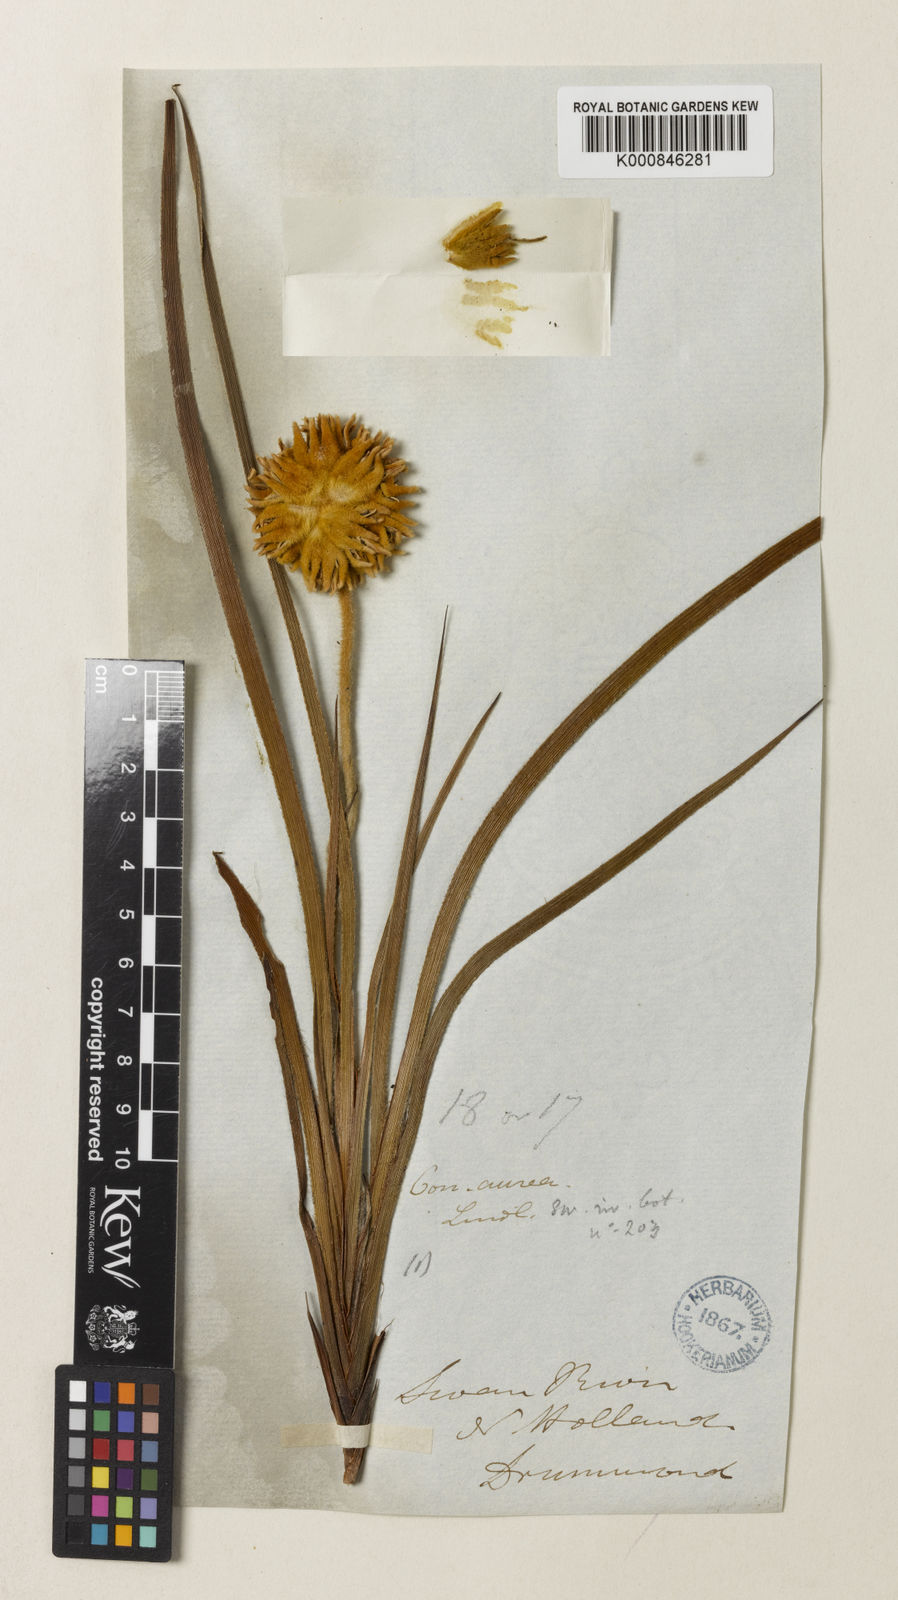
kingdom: Plantae
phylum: Tracheophyta
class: Liliopsida
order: Commelinales
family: Haemodoraceae
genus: Conostylis
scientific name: Conostylis aurea
